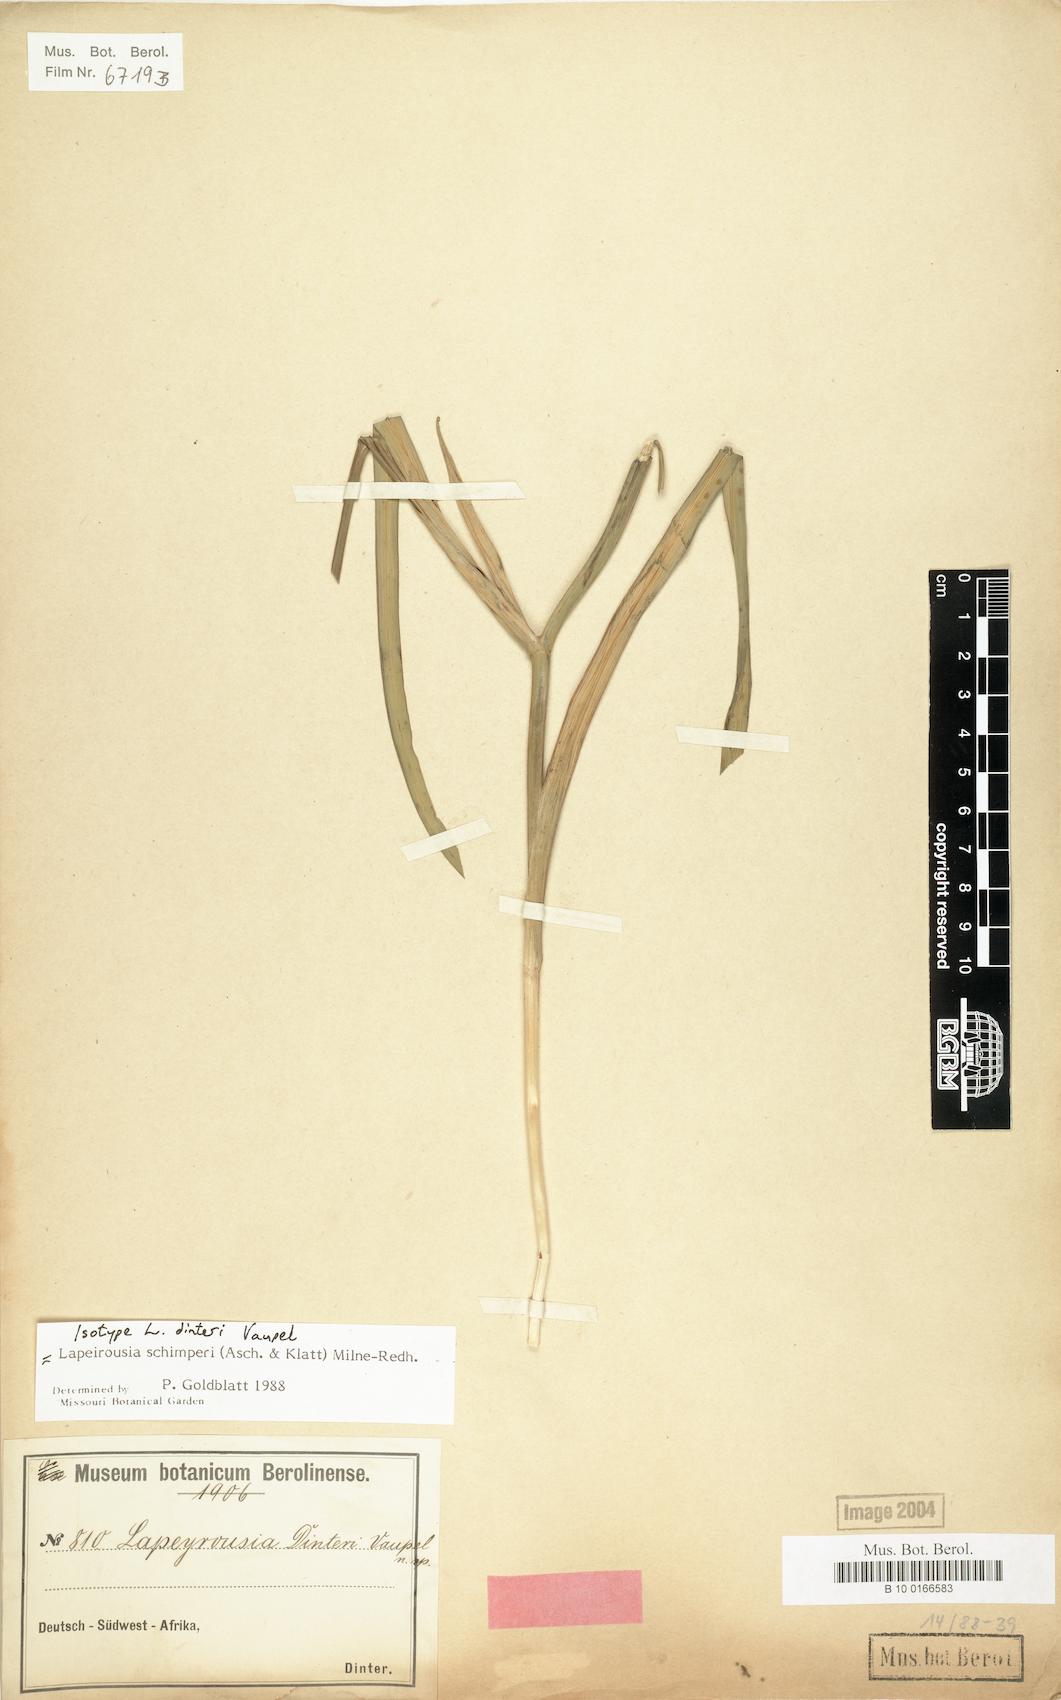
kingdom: Plantae
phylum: Tracheophyta
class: Liliopsida
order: Asparagales
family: Iridaceae
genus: Afrosolen
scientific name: Afrosolen schimperi
